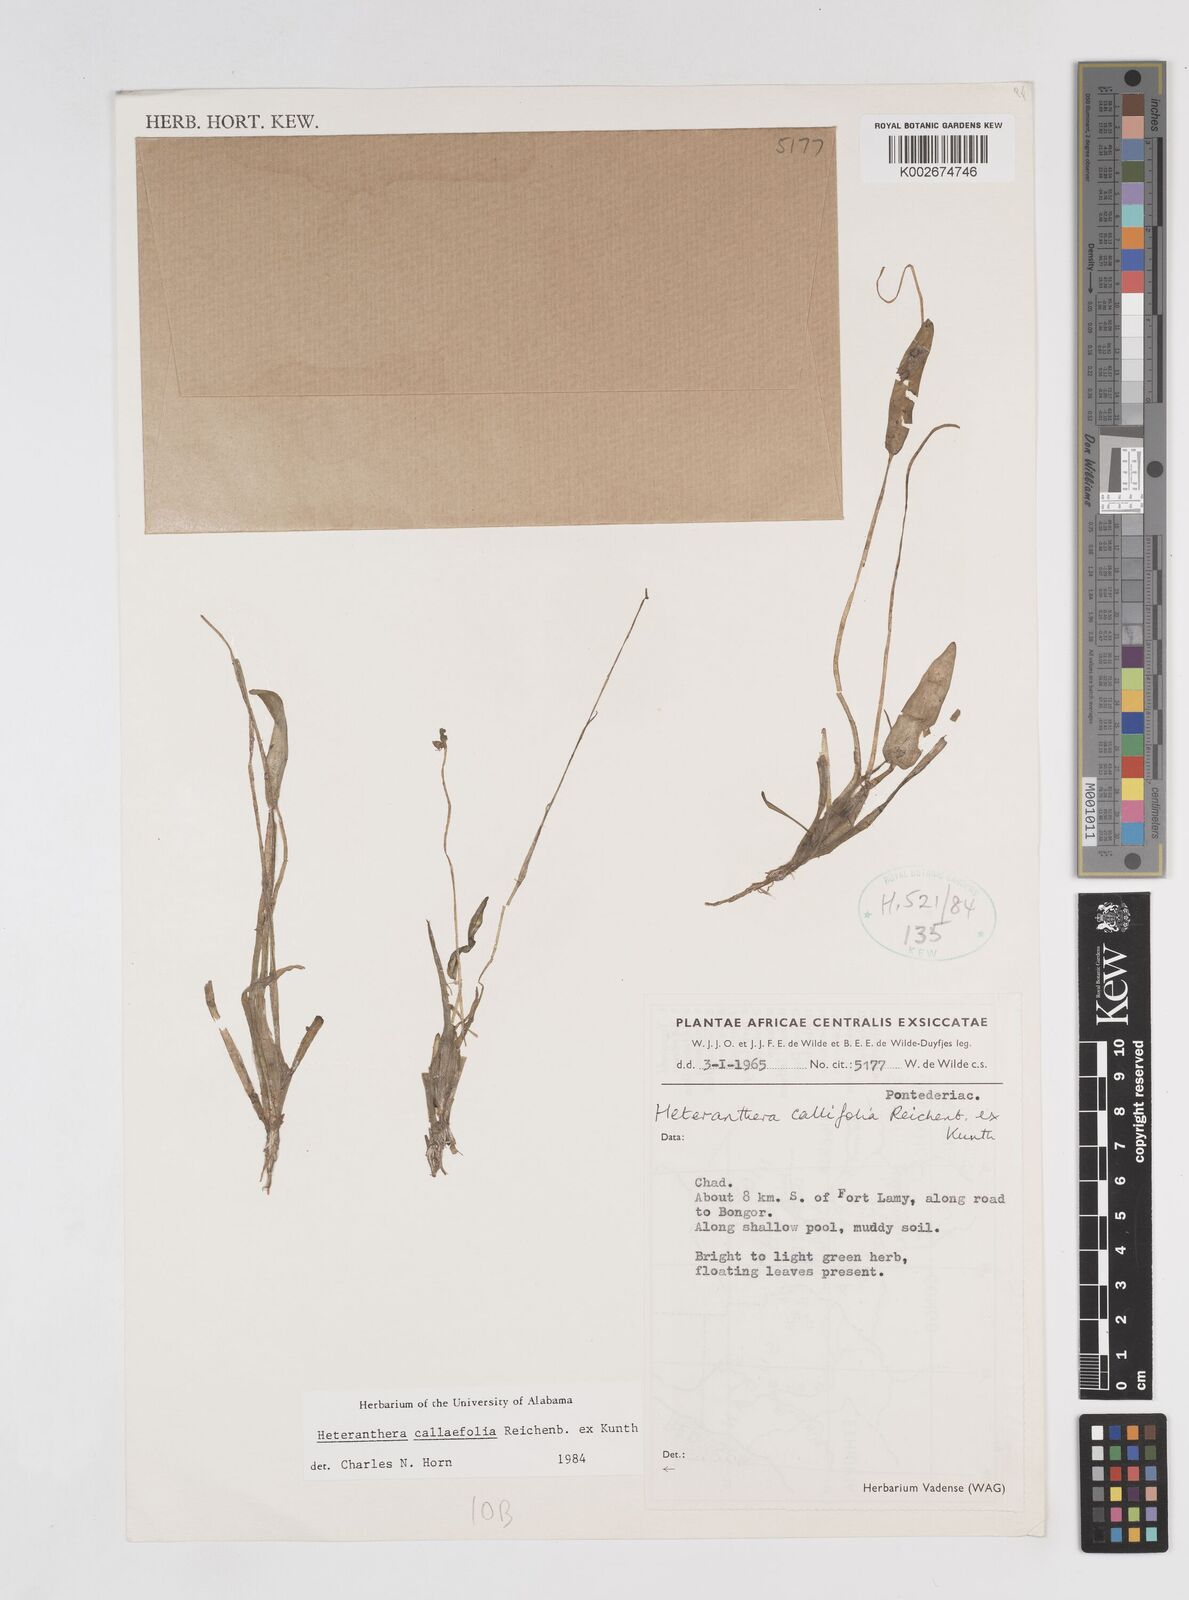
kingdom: Plantae
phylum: Tracheophyta
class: Liliopsida
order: Commelinales
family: Pontederiaceae
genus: Heteranthera
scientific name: Heteranthera callifolia
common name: Mud plantain
